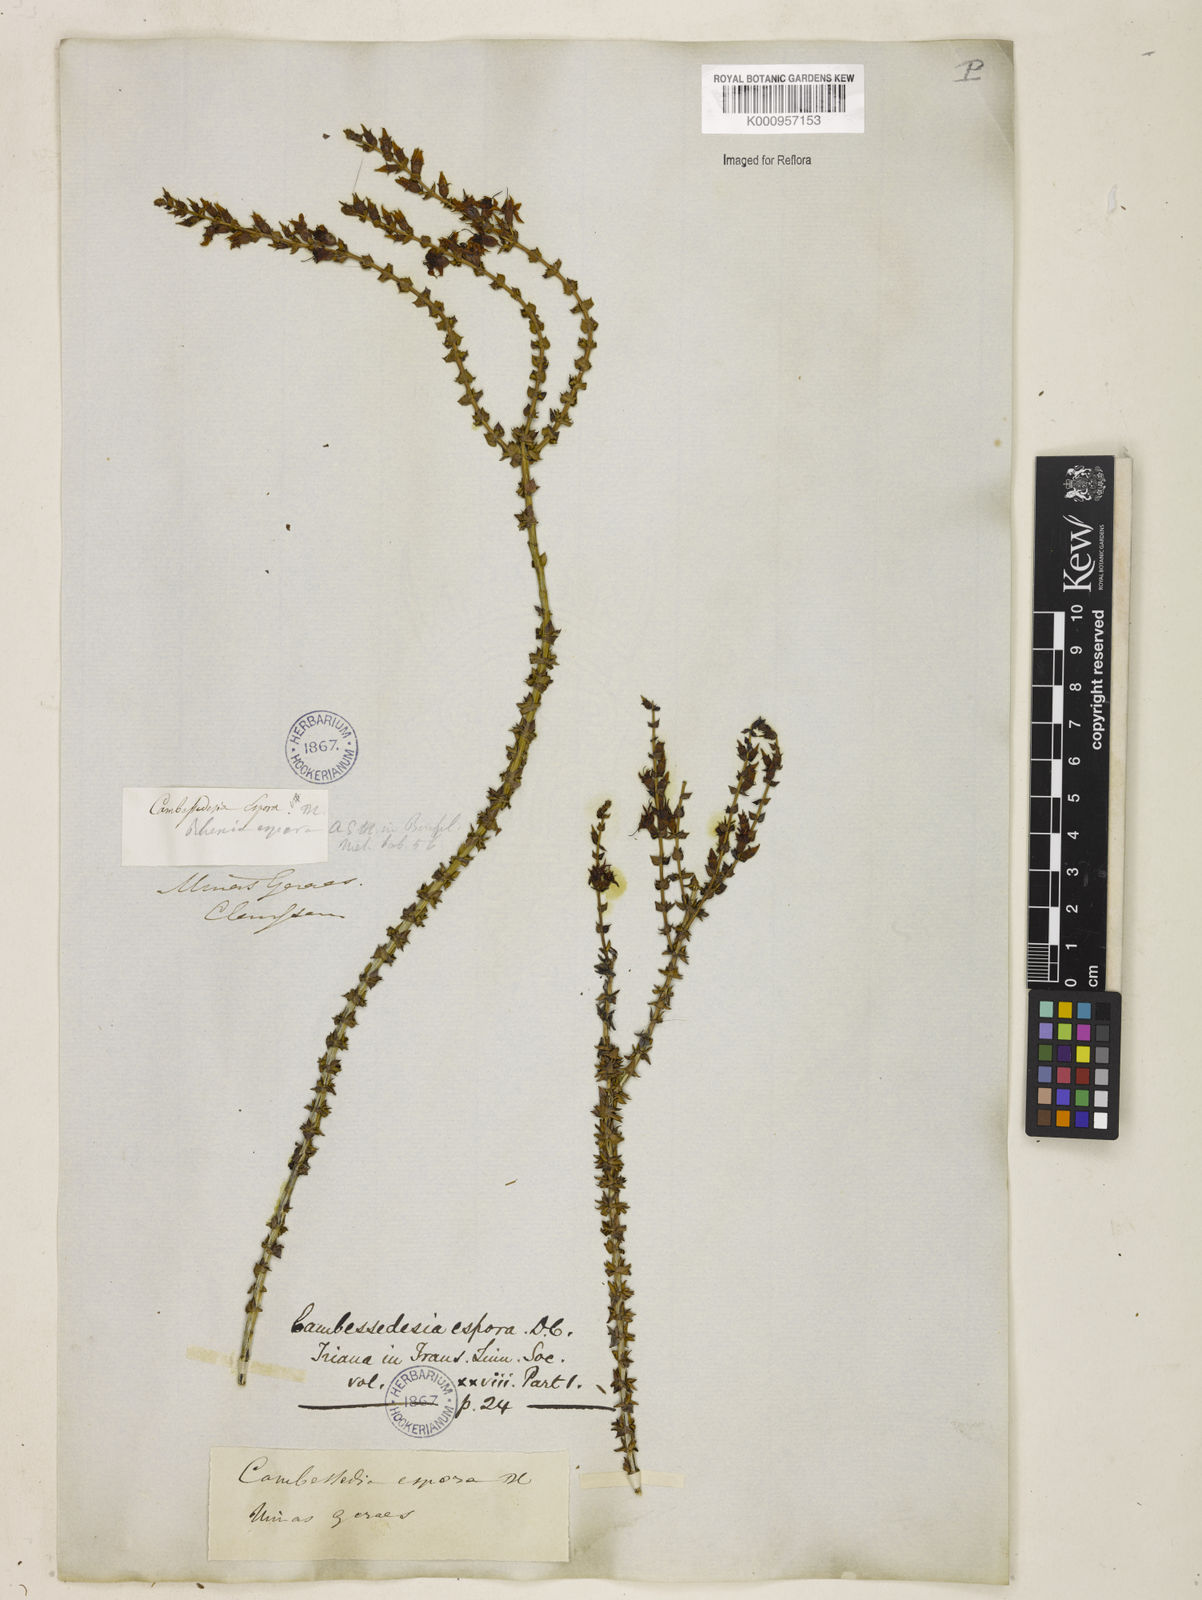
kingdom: Plantae
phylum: Tracheophyta
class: Magnoliopsida
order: Myrtales
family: Melastomataceae
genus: Cambessedesia
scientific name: Cambessedesia espora
